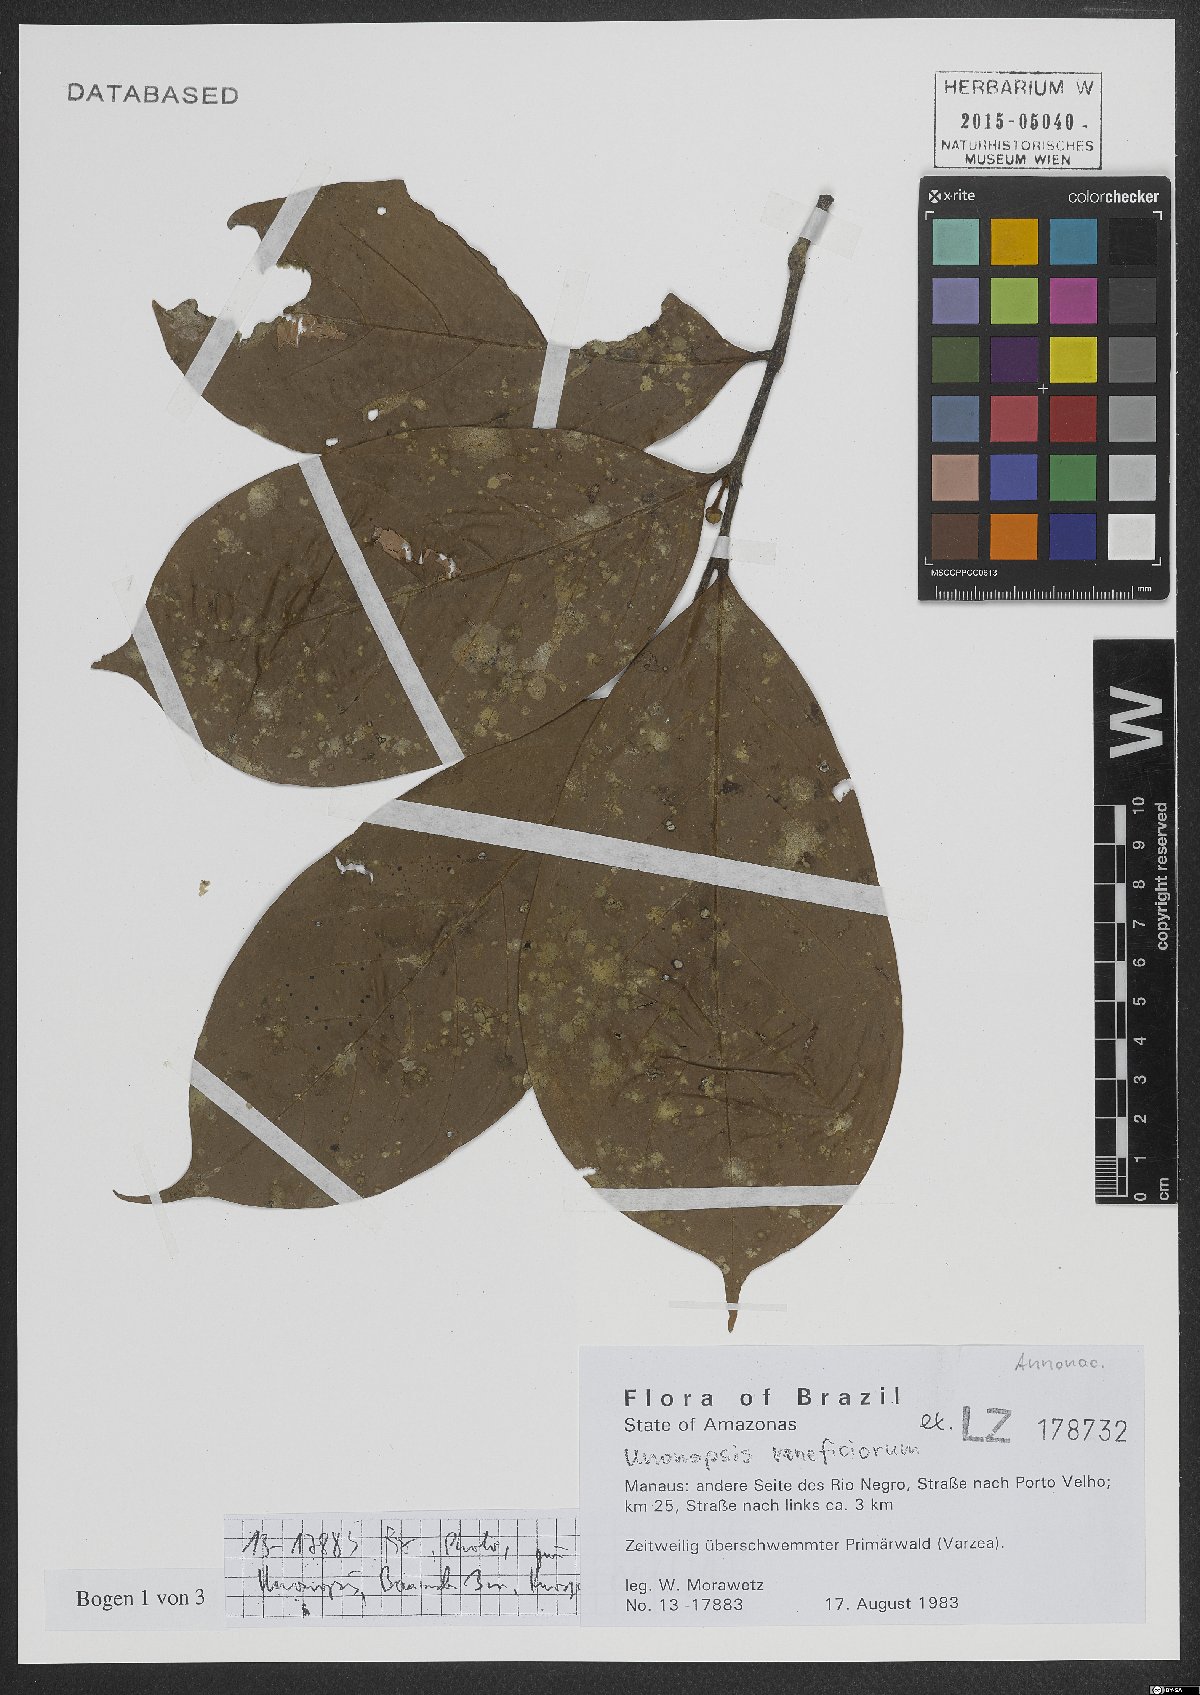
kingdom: Plantae
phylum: Tracheophyta
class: Magnoliopsida
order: Magnoliales
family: Annonaceae
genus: Unonopsis
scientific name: Unonopsis veneficiorum
